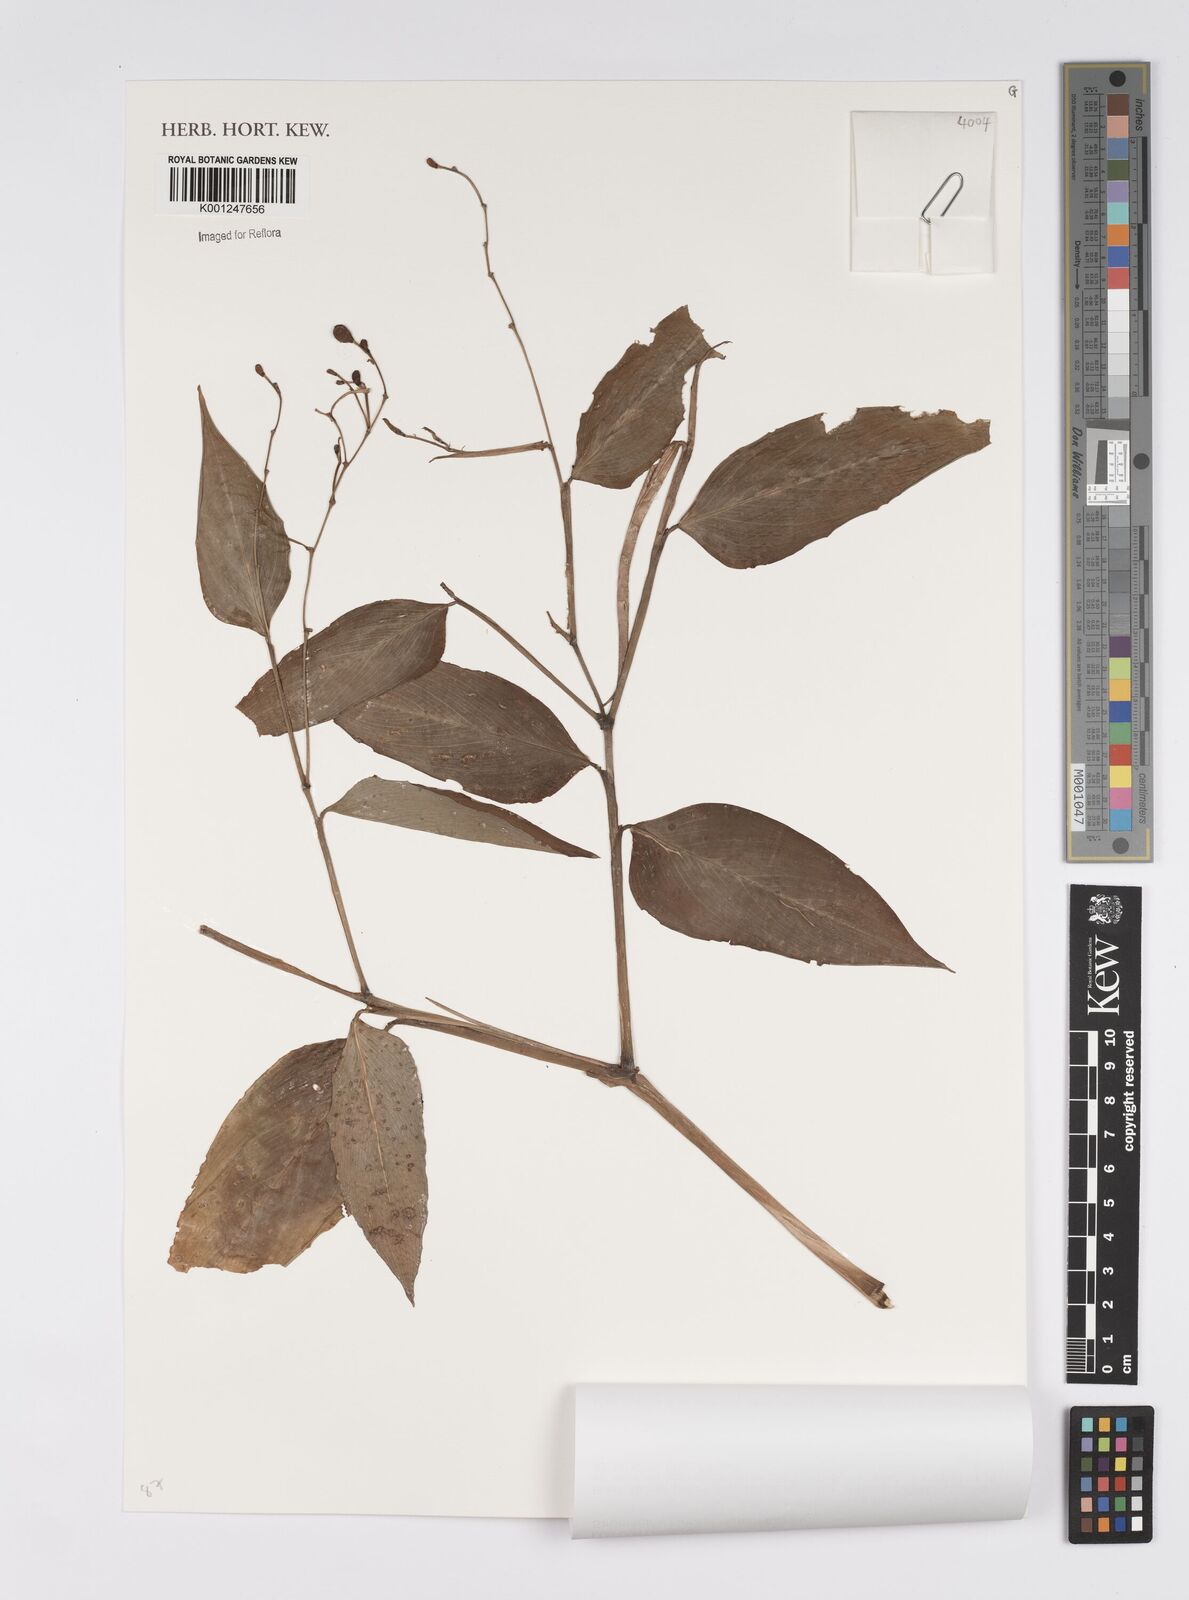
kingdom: Plantae
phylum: Tracheophyta
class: Liliopsida
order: Zingiberales
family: Marantaceae
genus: Stromanthe
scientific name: Stromanthe tonckat
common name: Stromanthe
